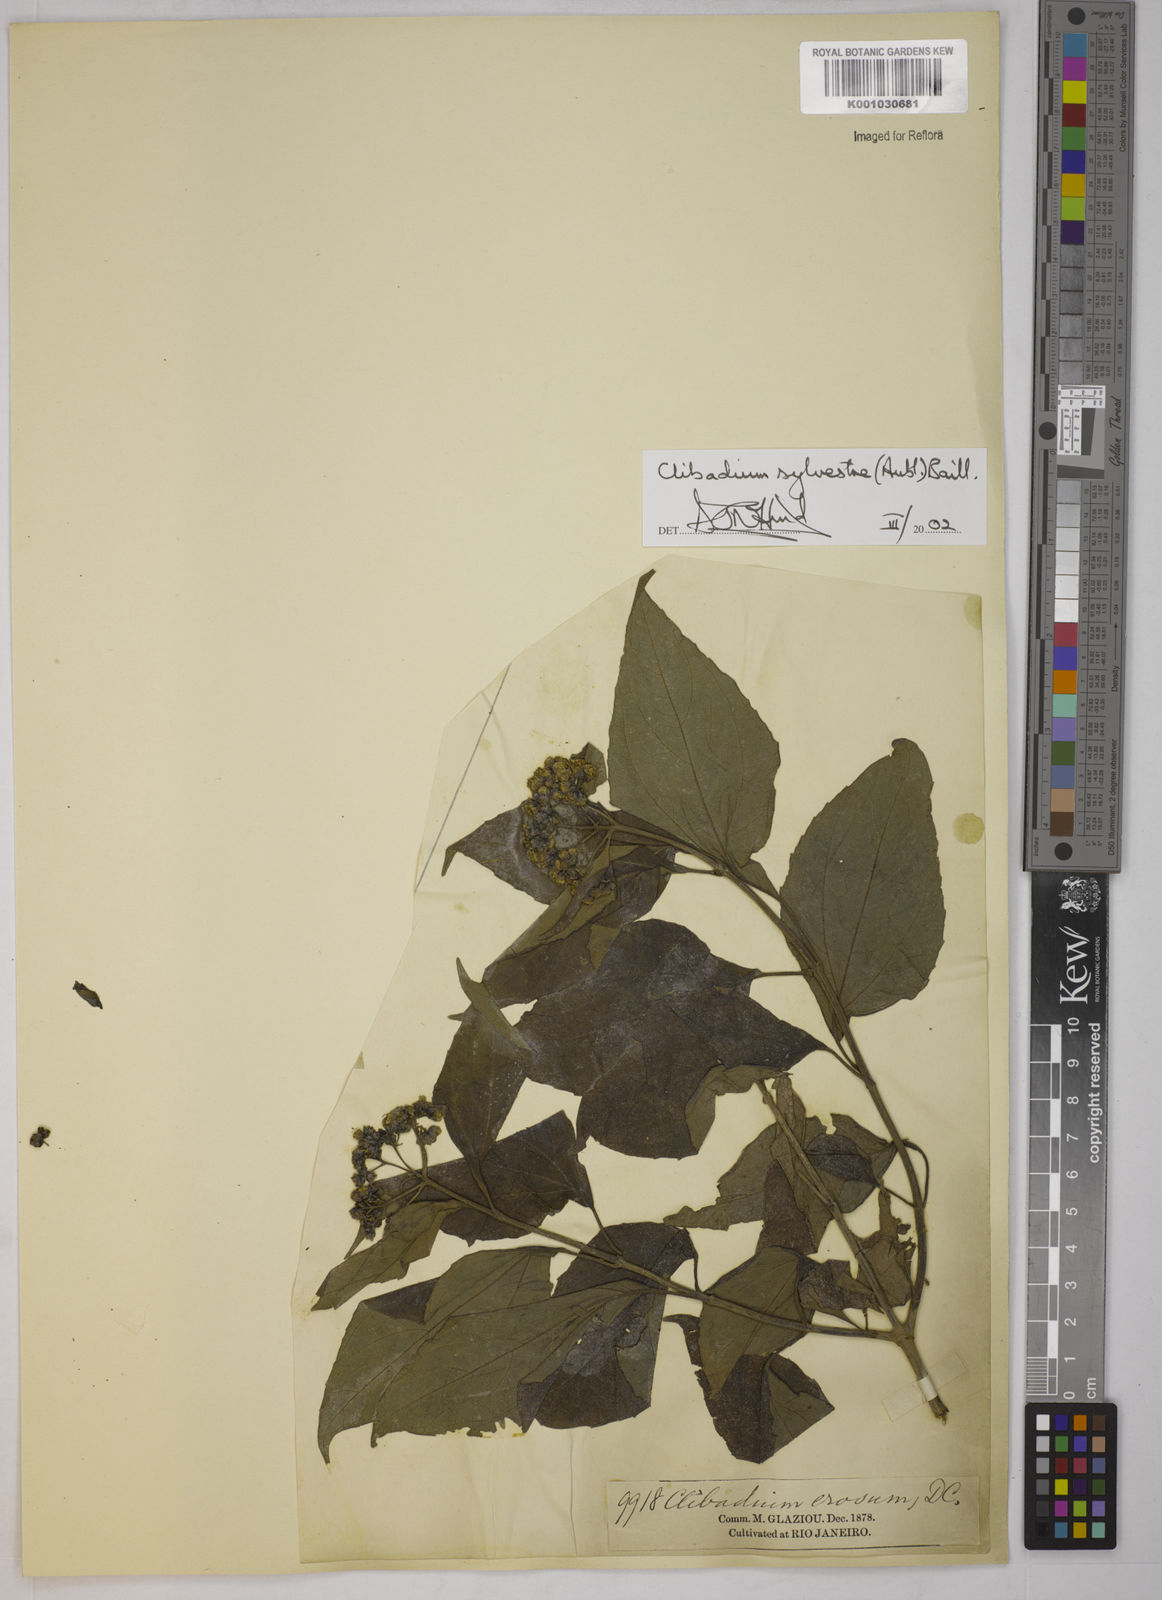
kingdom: Plantae
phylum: Tracheophyta
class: Magnoliopsida
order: Asterales
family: Asteraceae
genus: Clibadium
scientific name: Clibadium sylvestre
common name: Barbasco
